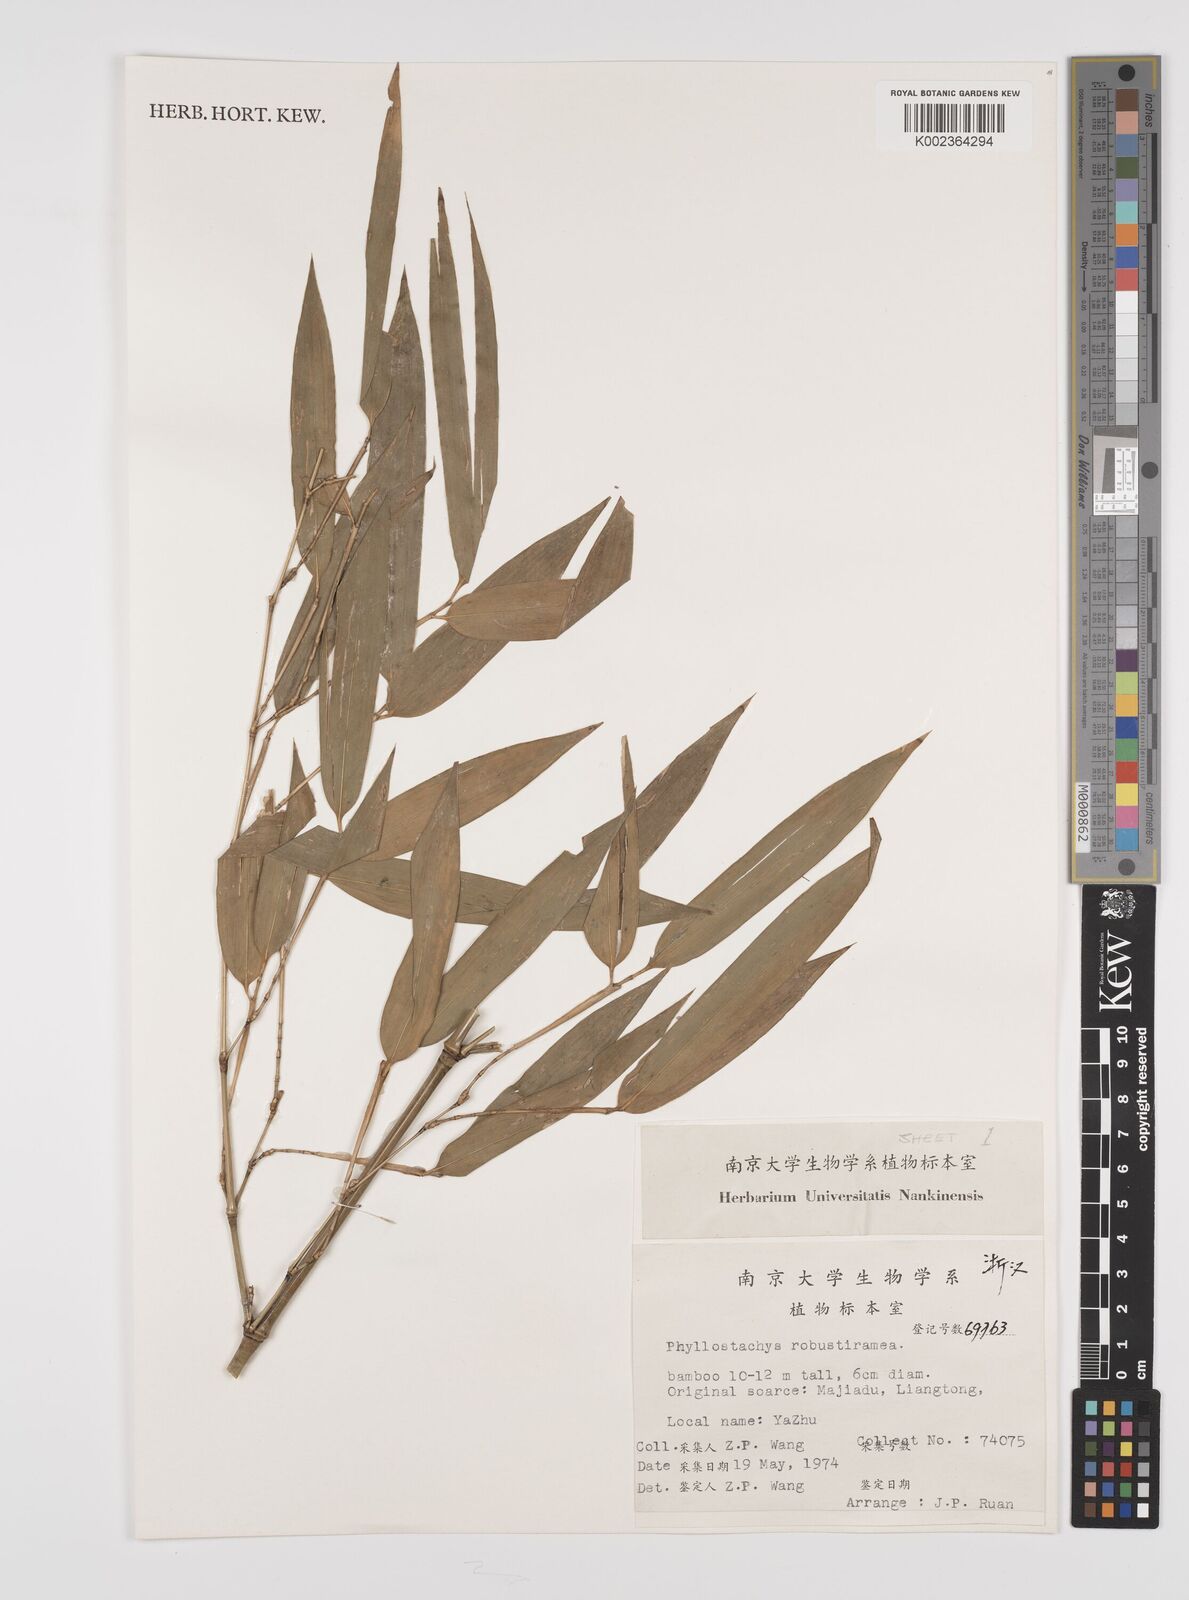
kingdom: Plantae
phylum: Tracheophyta
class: Liliopsida
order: Poales
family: Poaceae
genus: Phyllostachys
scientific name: Phyllostachys violascens
